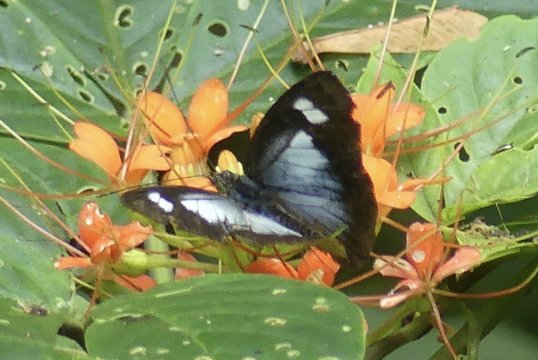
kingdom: Animalia
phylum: Arthropoda
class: Insecta
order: Lepidoptera
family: Pieridae
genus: Leptophobia
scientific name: Leptophobia caesia
